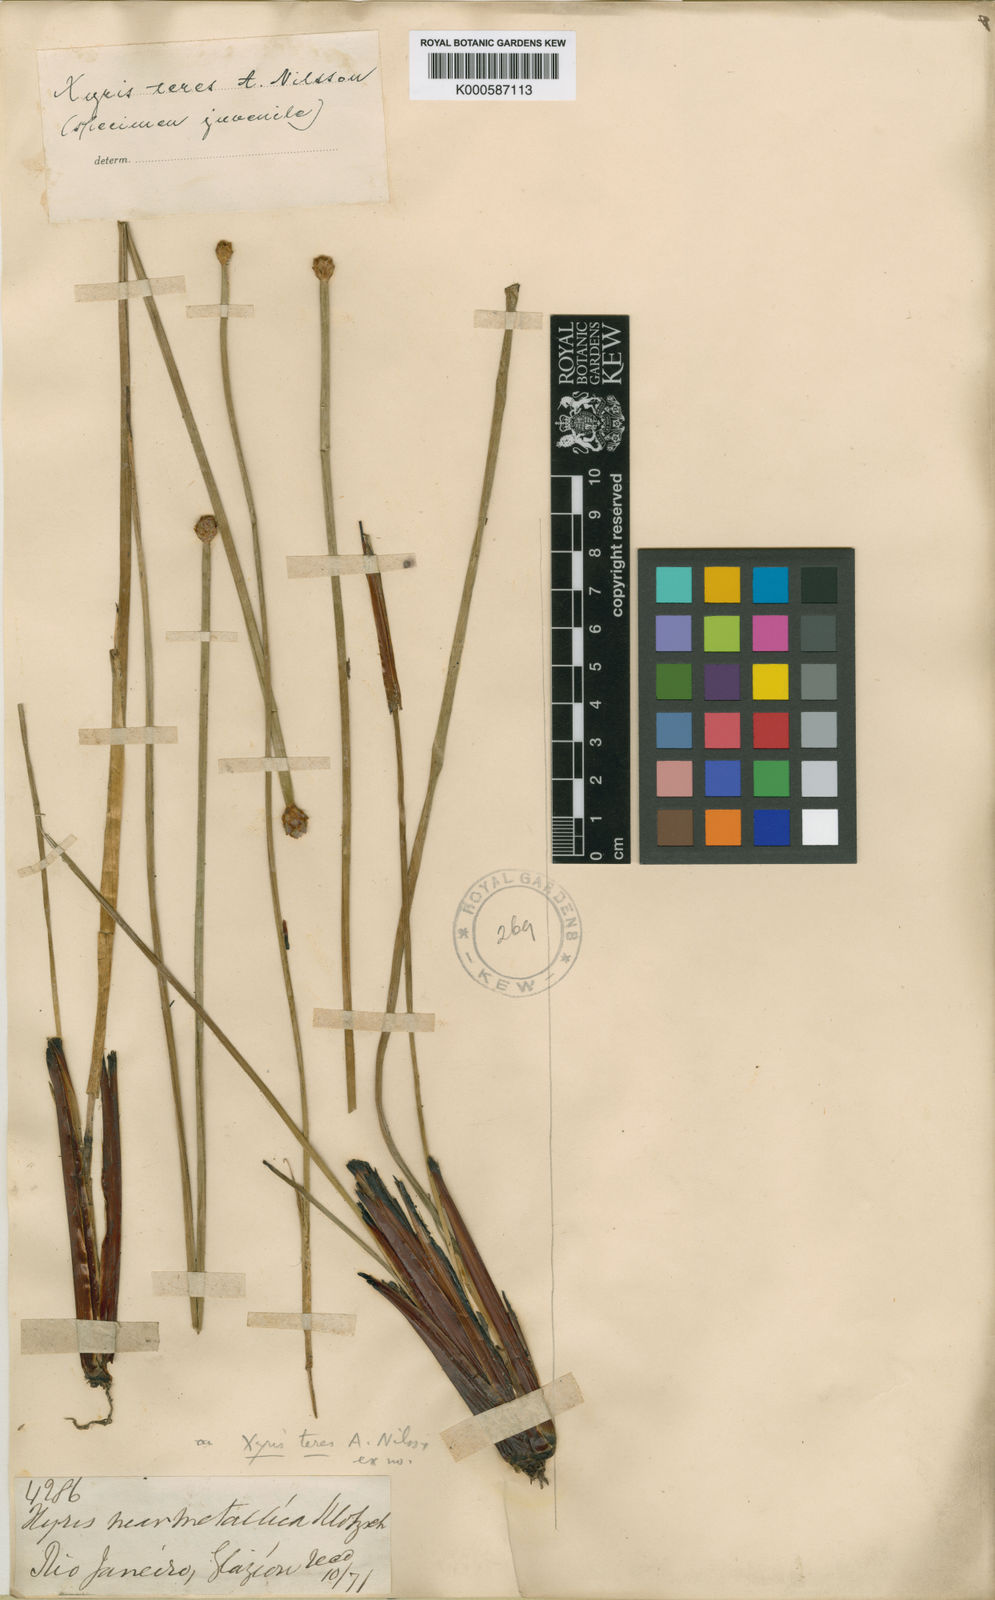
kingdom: Plantae
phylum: Tracheophyta
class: Liliopsida
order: Poales
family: Xyridaceae
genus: Xyris
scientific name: Xyris teres
